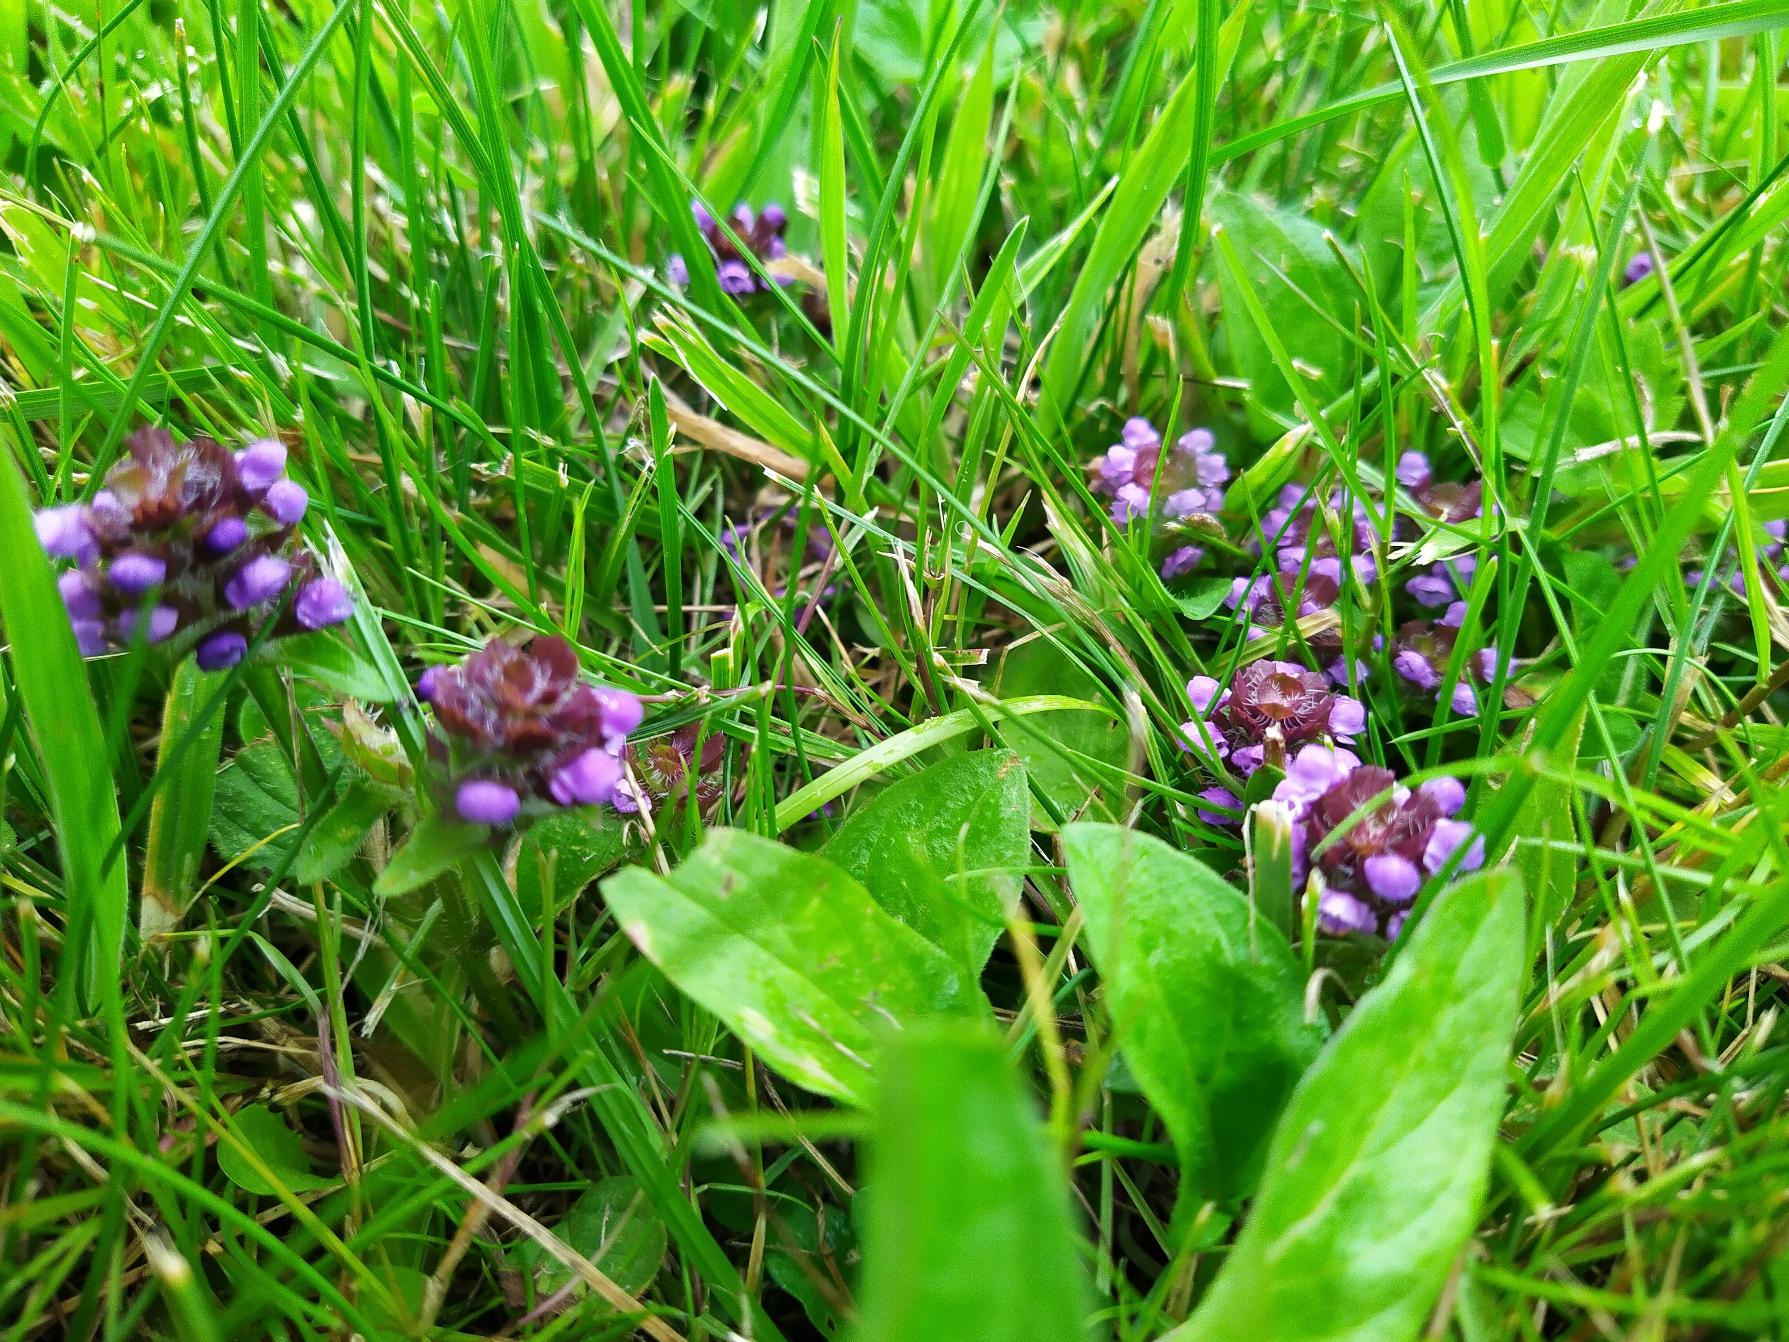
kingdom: Plantae
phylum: Tracheophyta
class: Magnoliopsida
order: Lamiales
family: Lamiaceae
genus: Prunella
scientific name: Prunella vulgaris
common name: Almindelig brunelle
